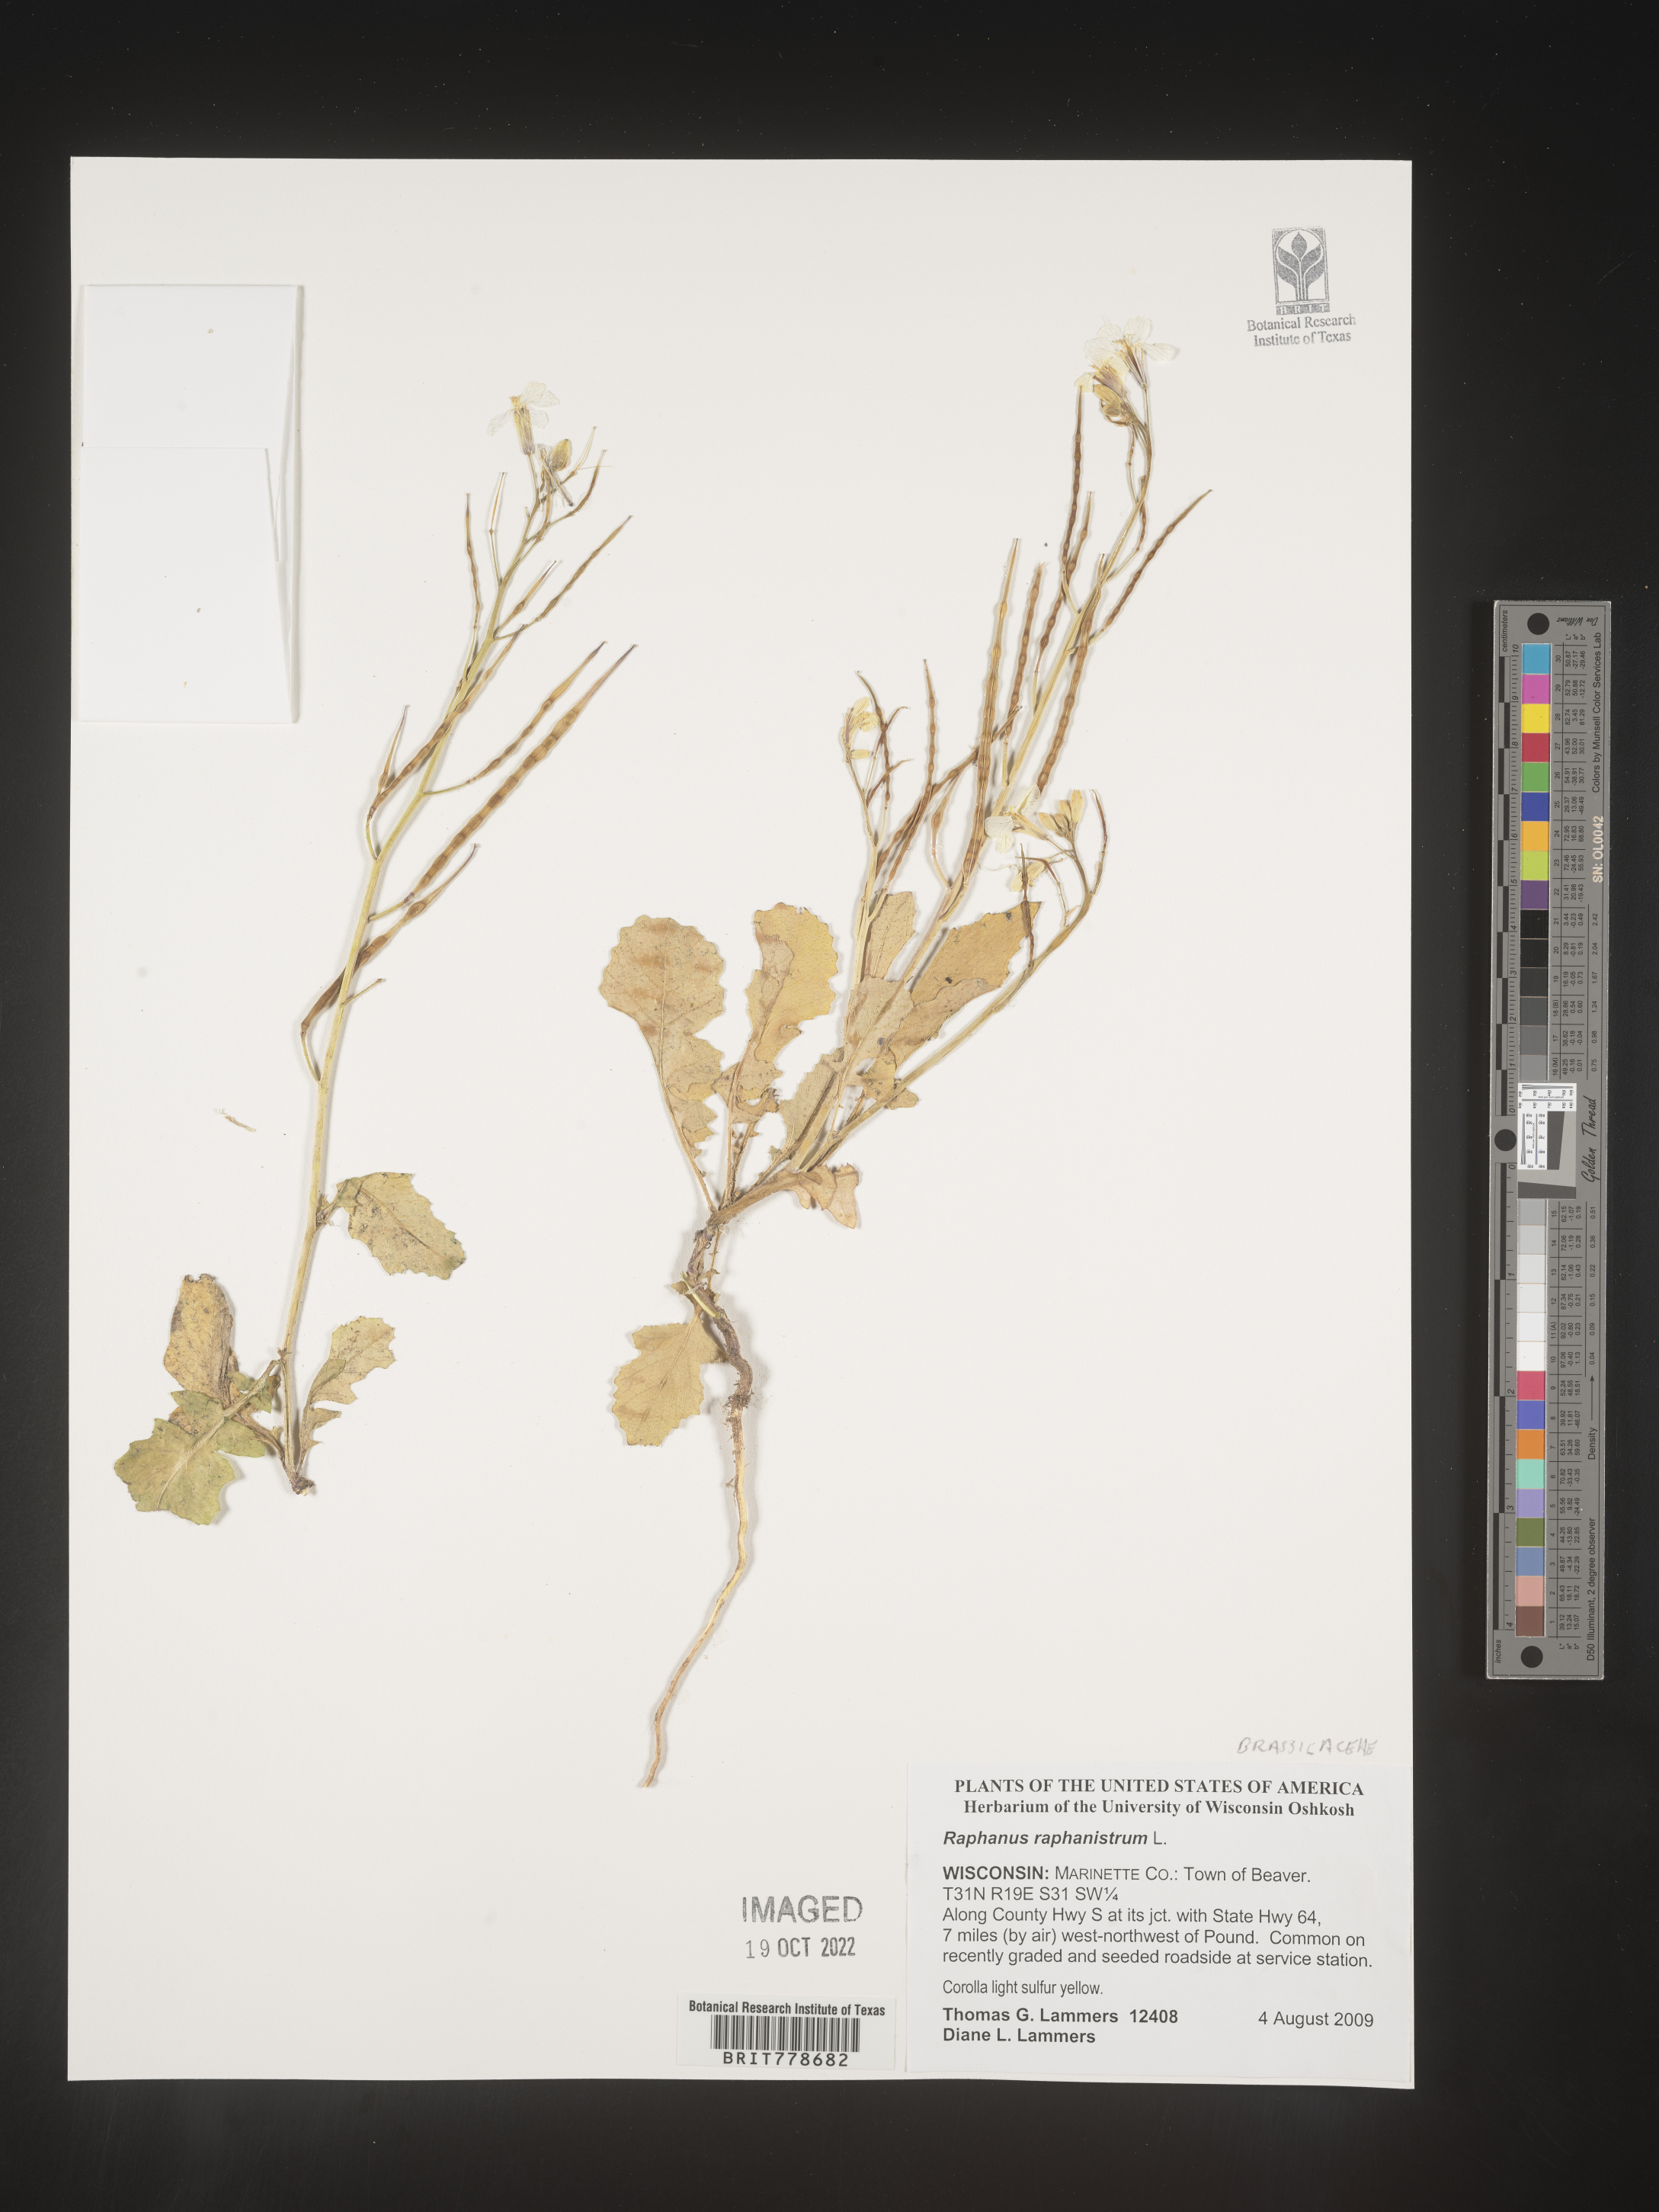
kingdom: Plantae
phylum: Tracheophyta
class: Magnoliopsida
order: Brassicales
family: Brassicaceae
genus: Raphanus
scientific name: Raphanus raphanistrum
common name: Wild radish
